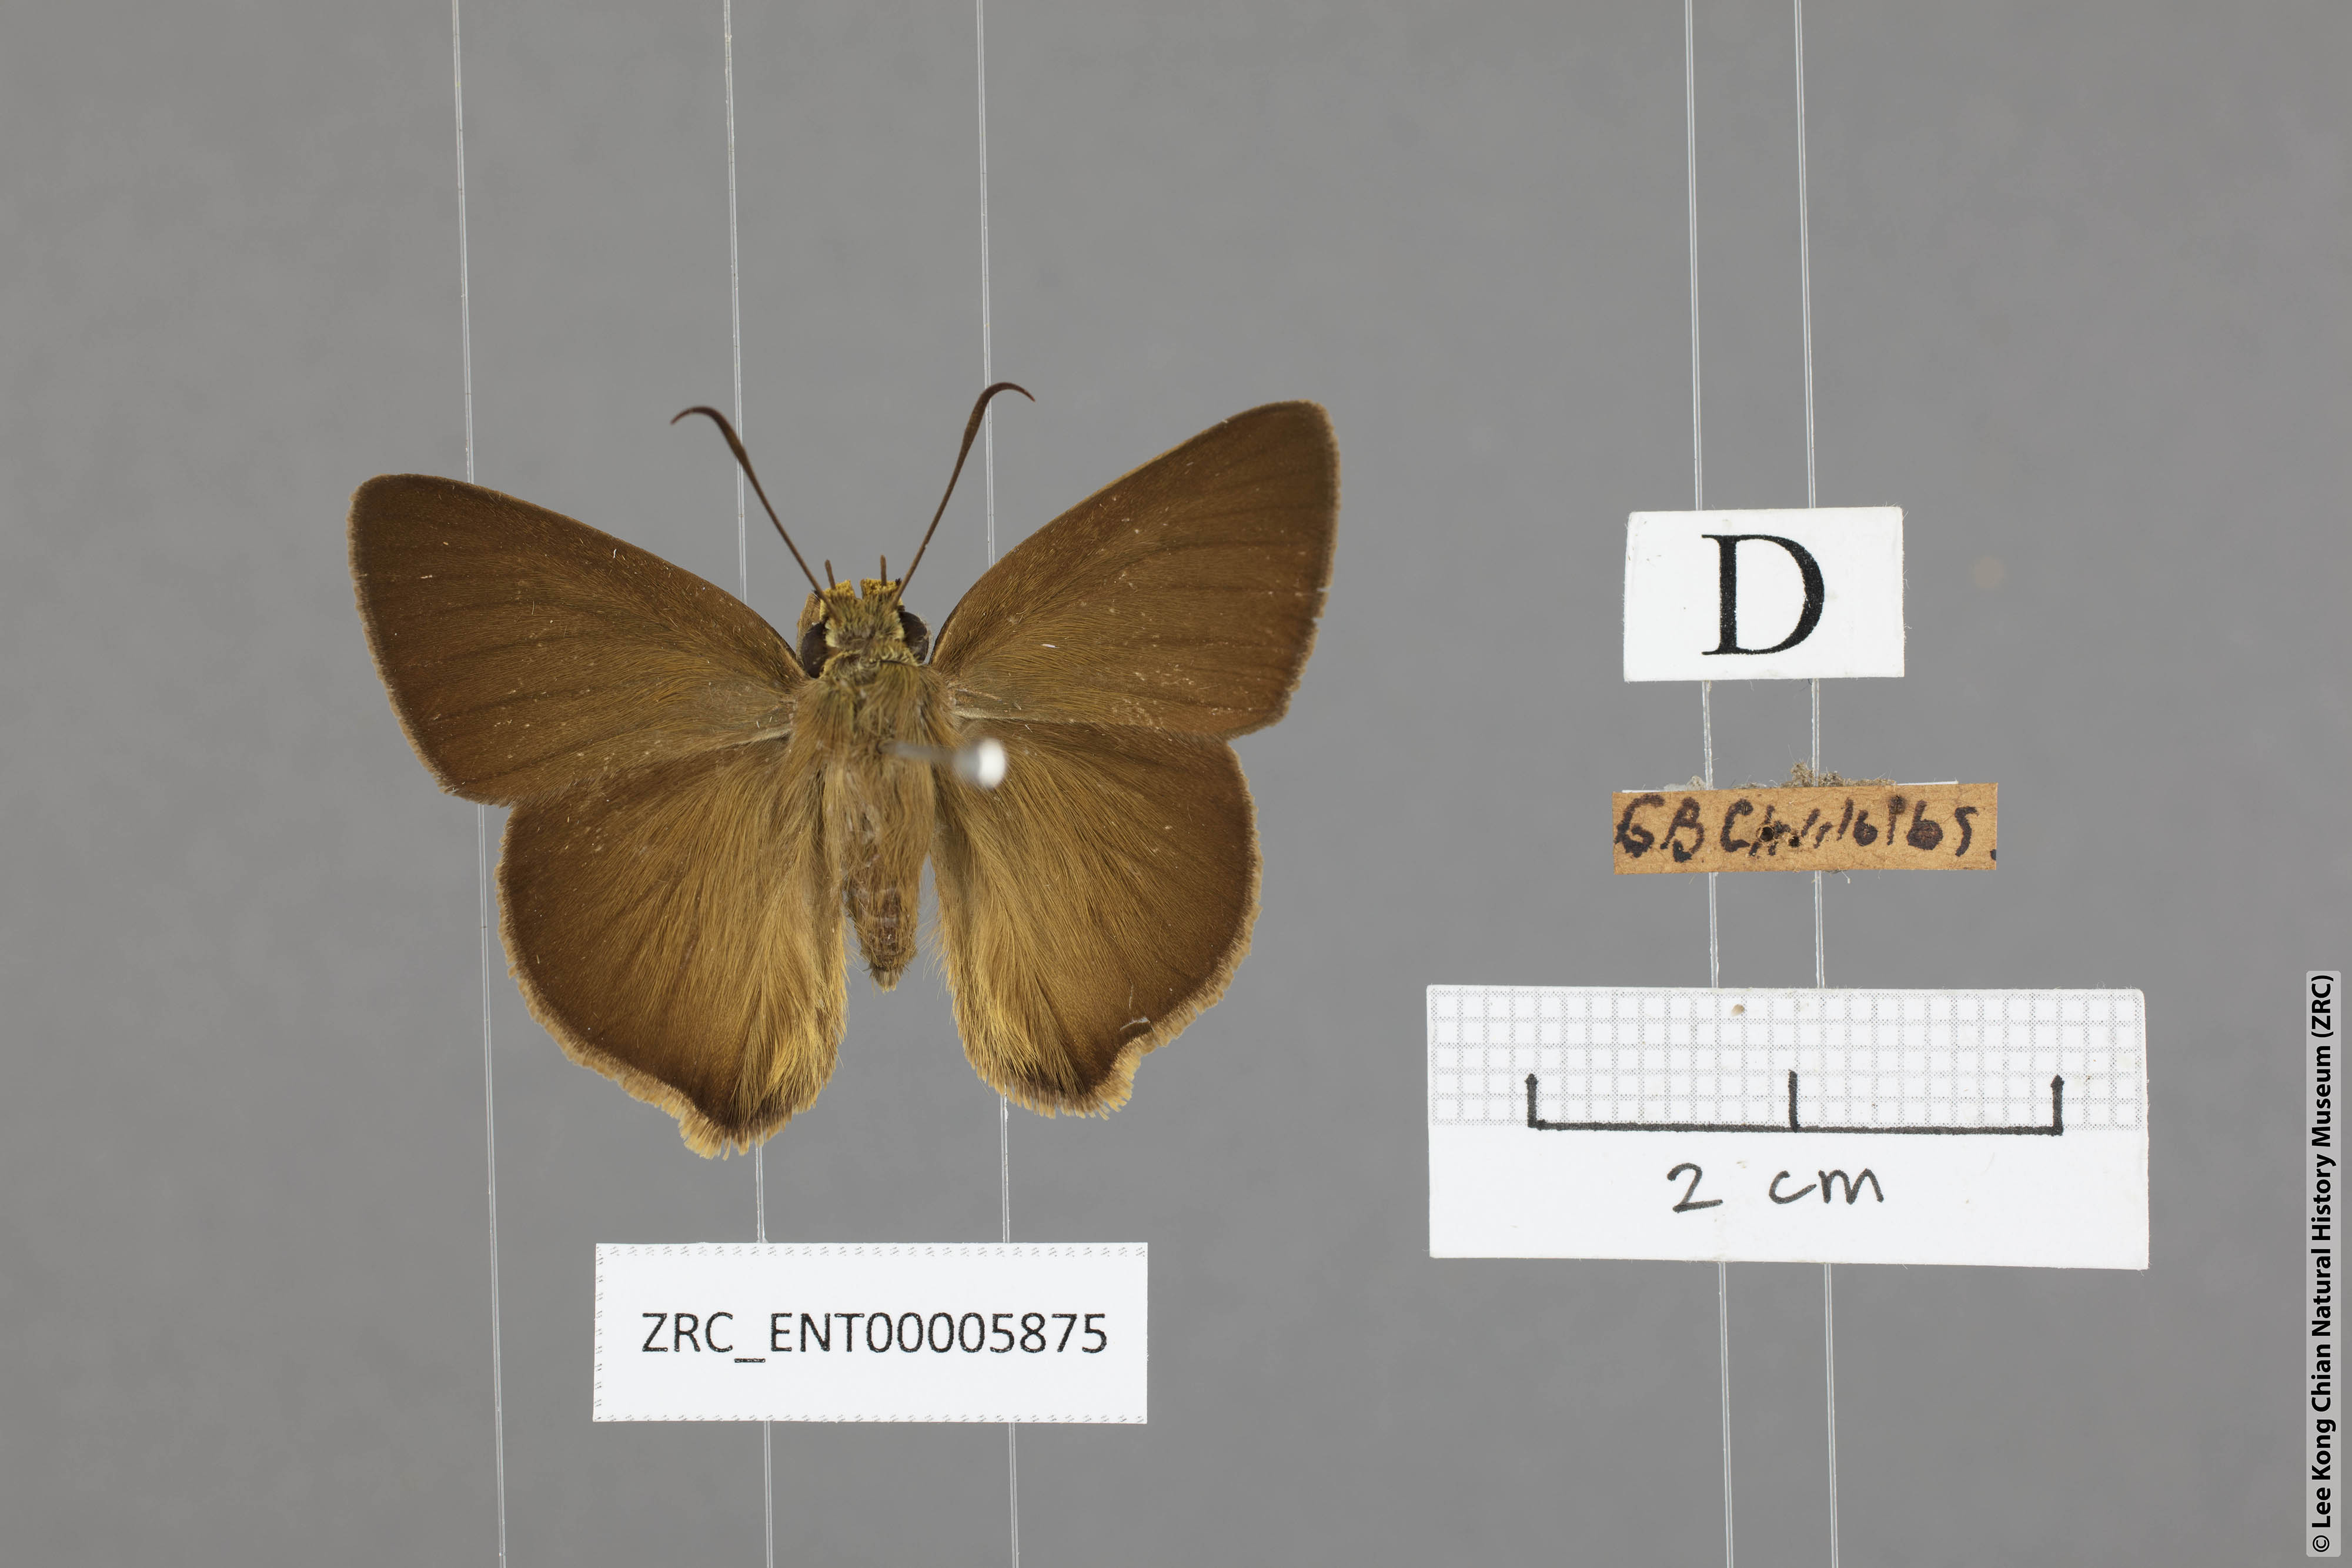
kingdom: Animalia
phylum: Arthropoda
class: Insecta
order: Lepidoptera
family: Hesperiidae
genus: Hasora
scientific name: Hasora mus
